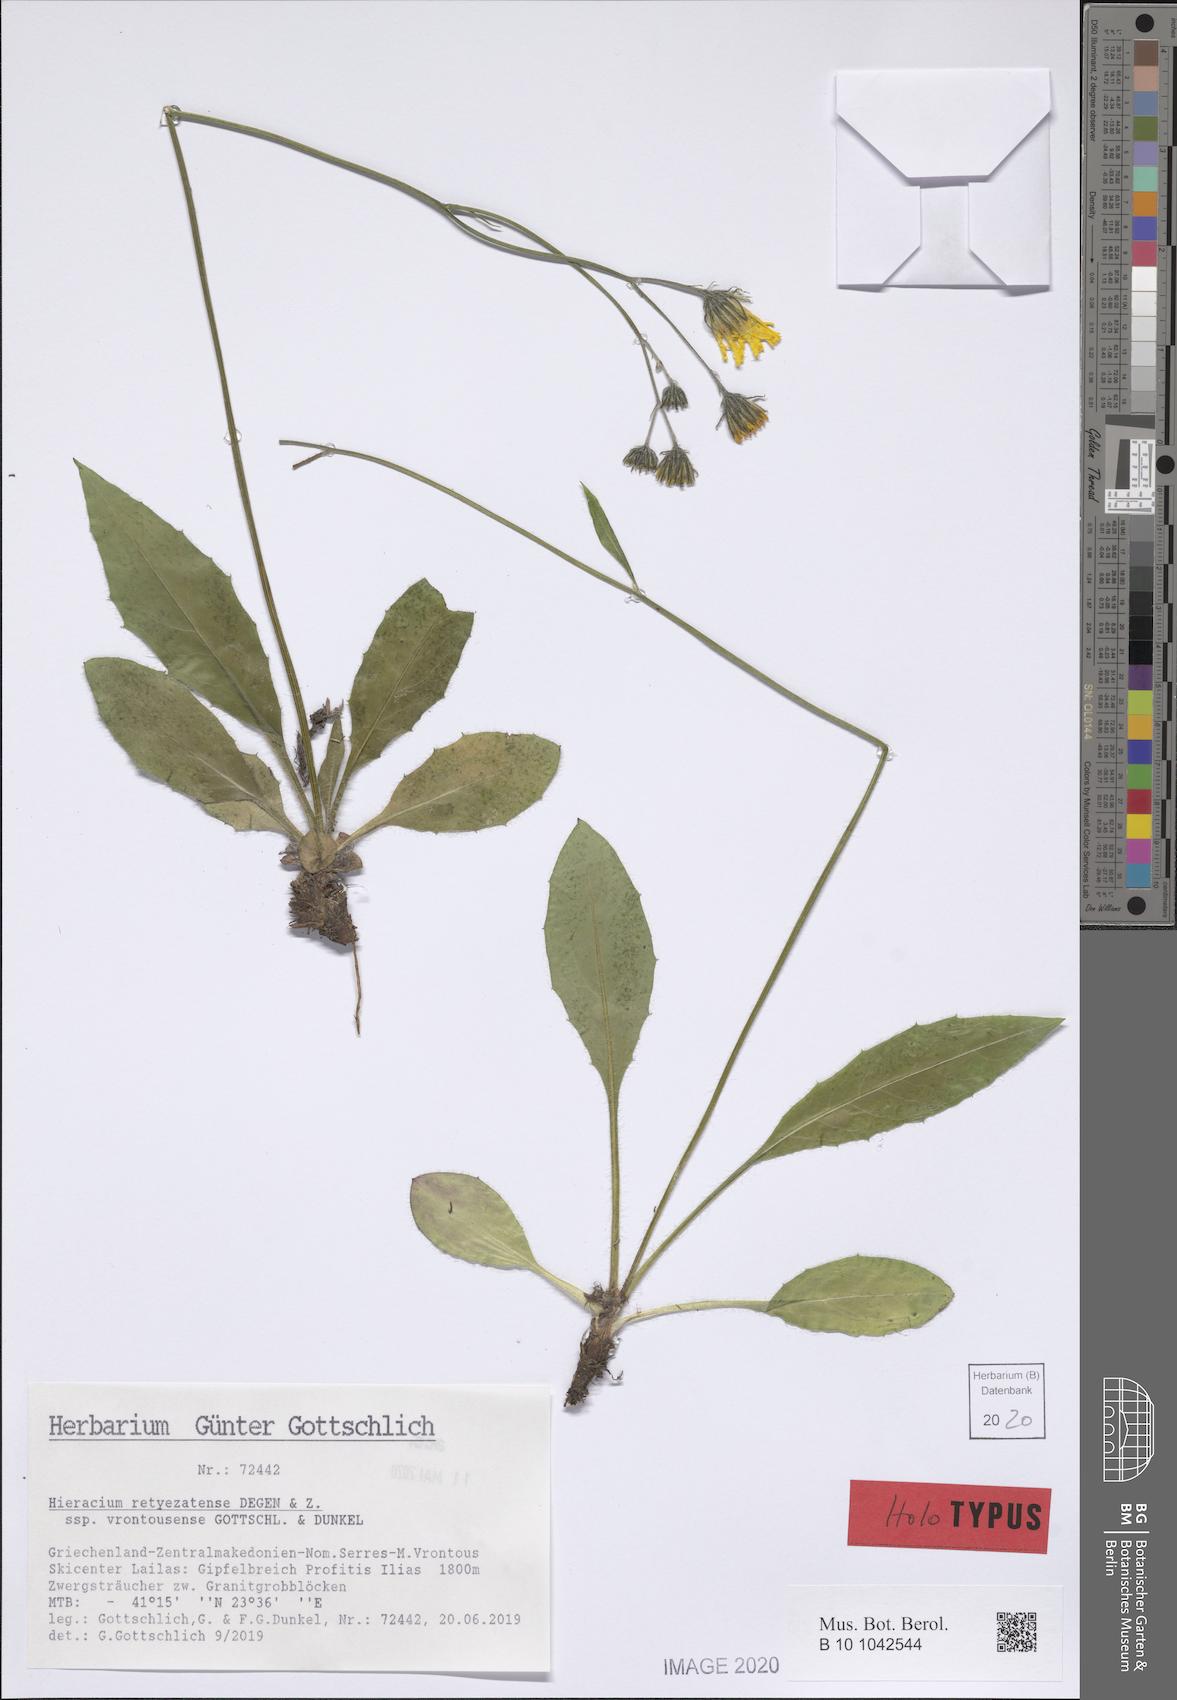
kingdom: Plantae
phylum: Tracheophyta
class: Magnoliopsida
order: Asterales
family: Asteraceae
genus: Hieracium
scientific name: Hieracium retyezatense
